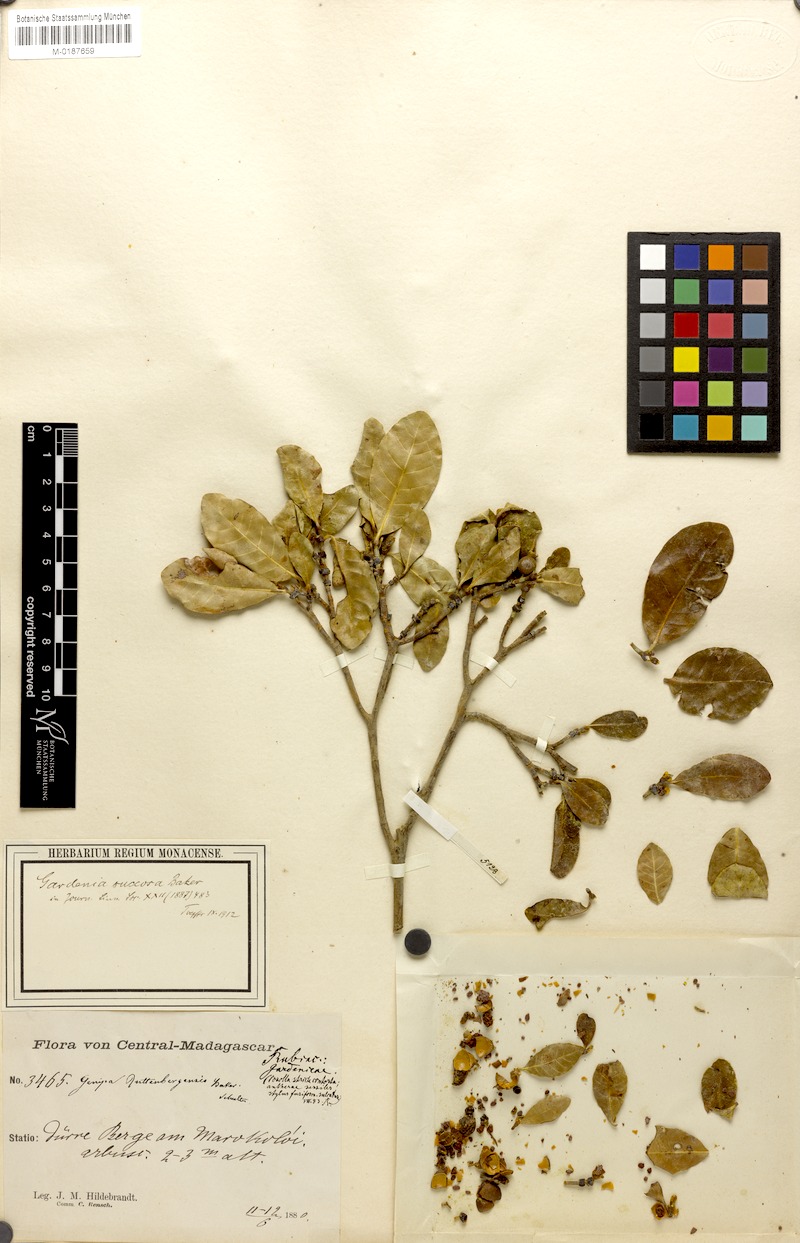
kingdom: Plantae
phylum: Tracheophyta
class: Magnoliopsida
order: Gentianales
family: Rubiaceae
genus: Gardenia
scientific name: Gardenia rutenbergiana
